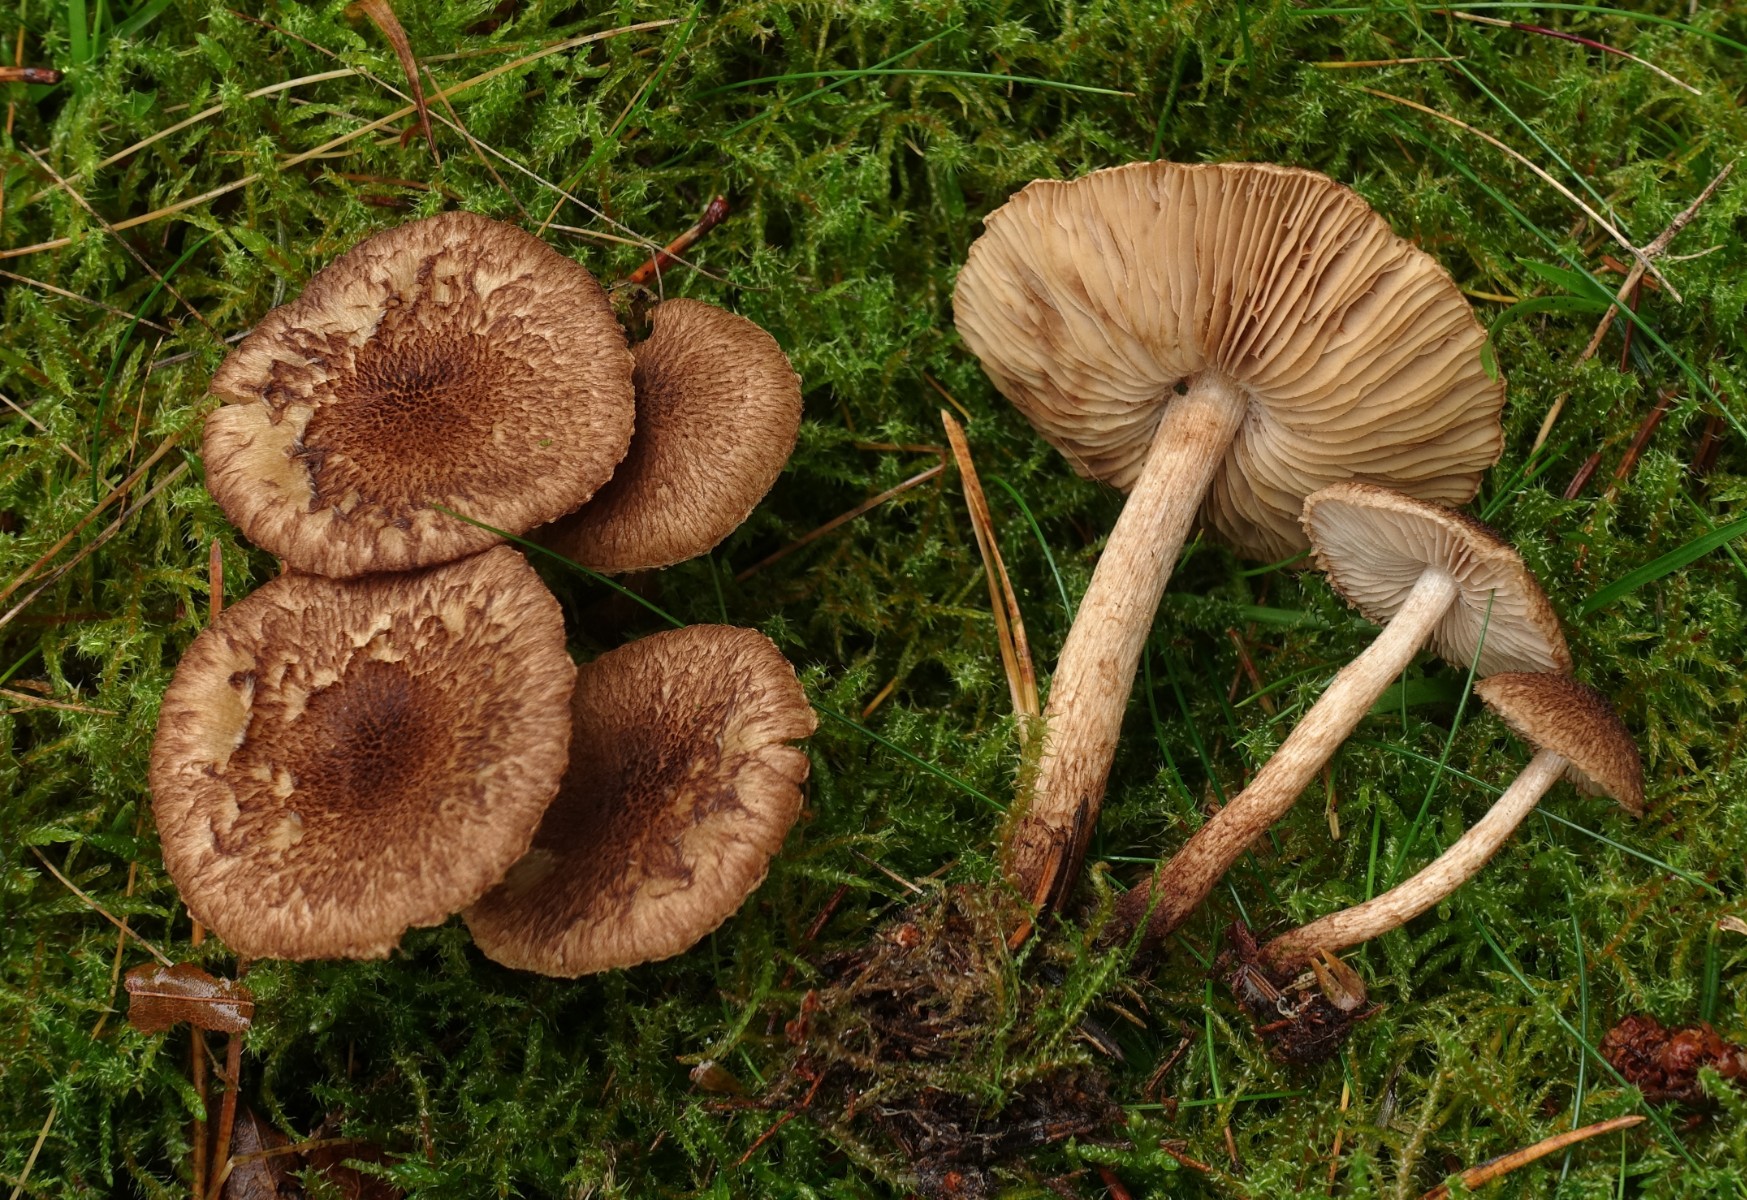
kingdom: Fungi
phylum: Basidiomycota
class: Agaricomycetes
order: Agaricales
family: Inocybaceae
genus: Inocybe
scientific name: Inocybe lanuginosa
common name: uldskællet trævlhat
